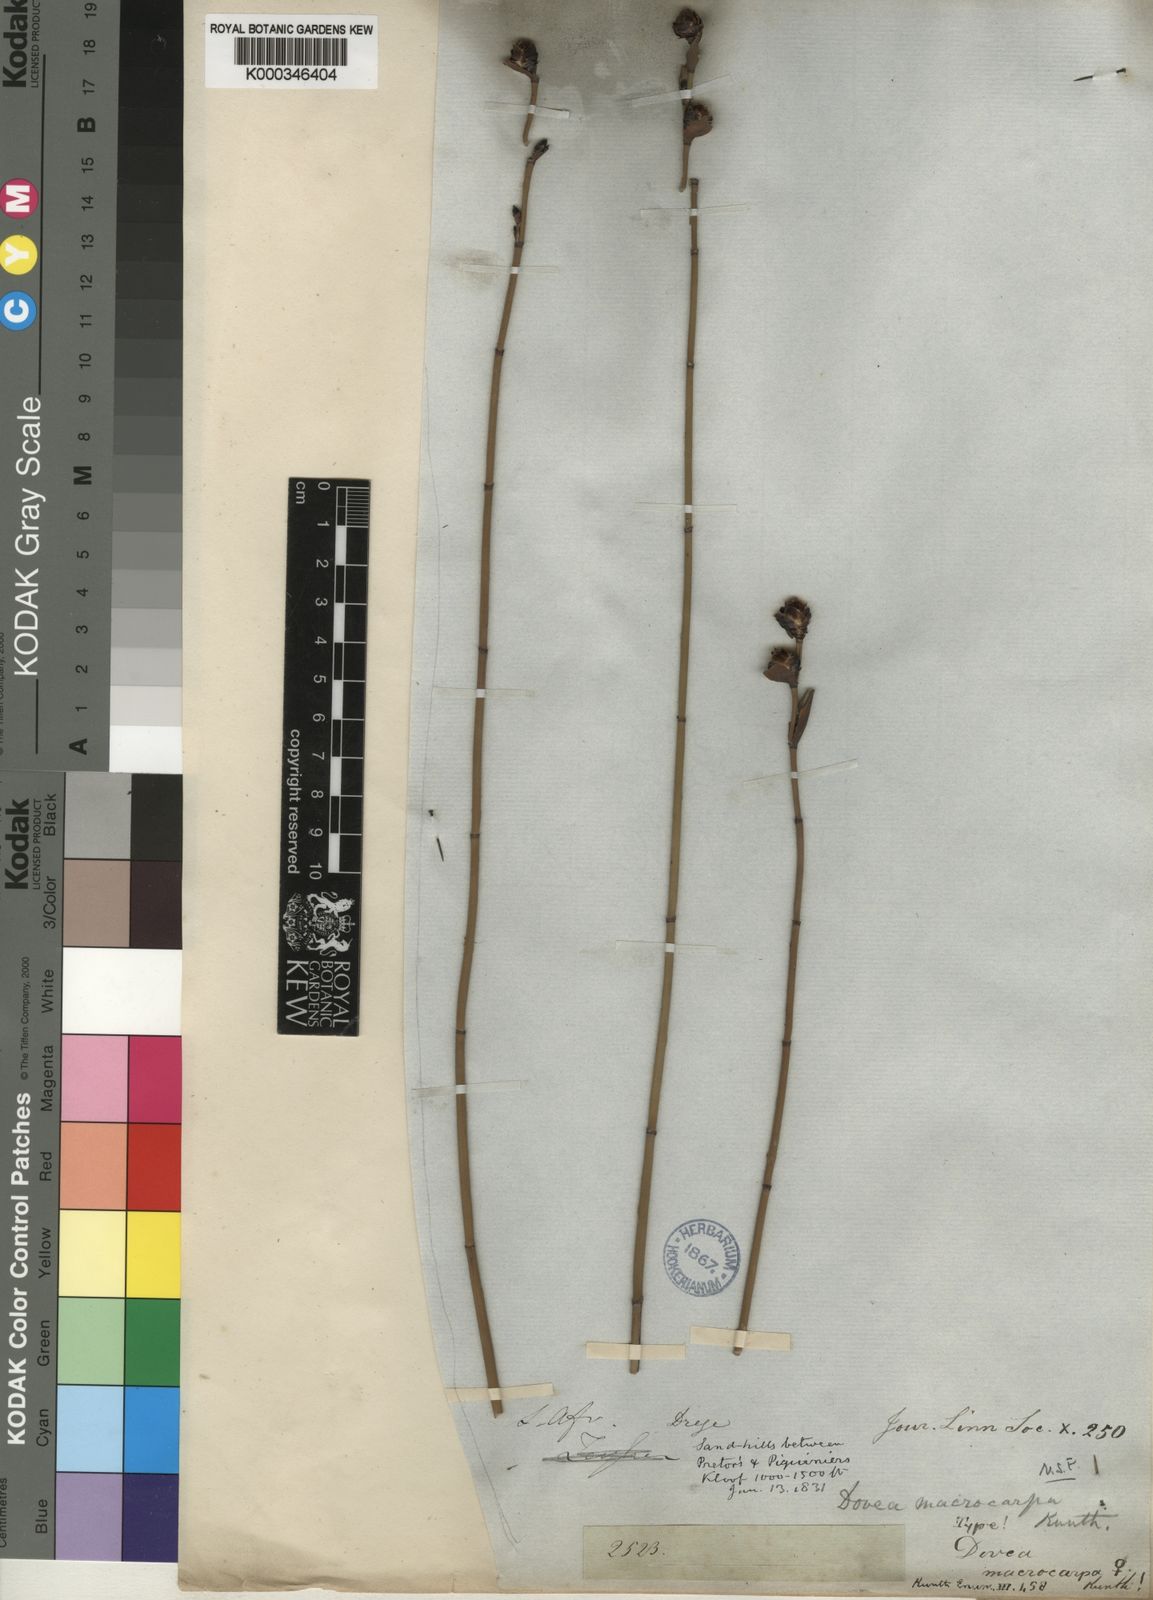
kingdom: Plantae
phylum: Tracheophyta
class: Liliopsida
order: Poales
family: Restionaceae
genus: Elegia
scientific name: Elegia macrocarpa
